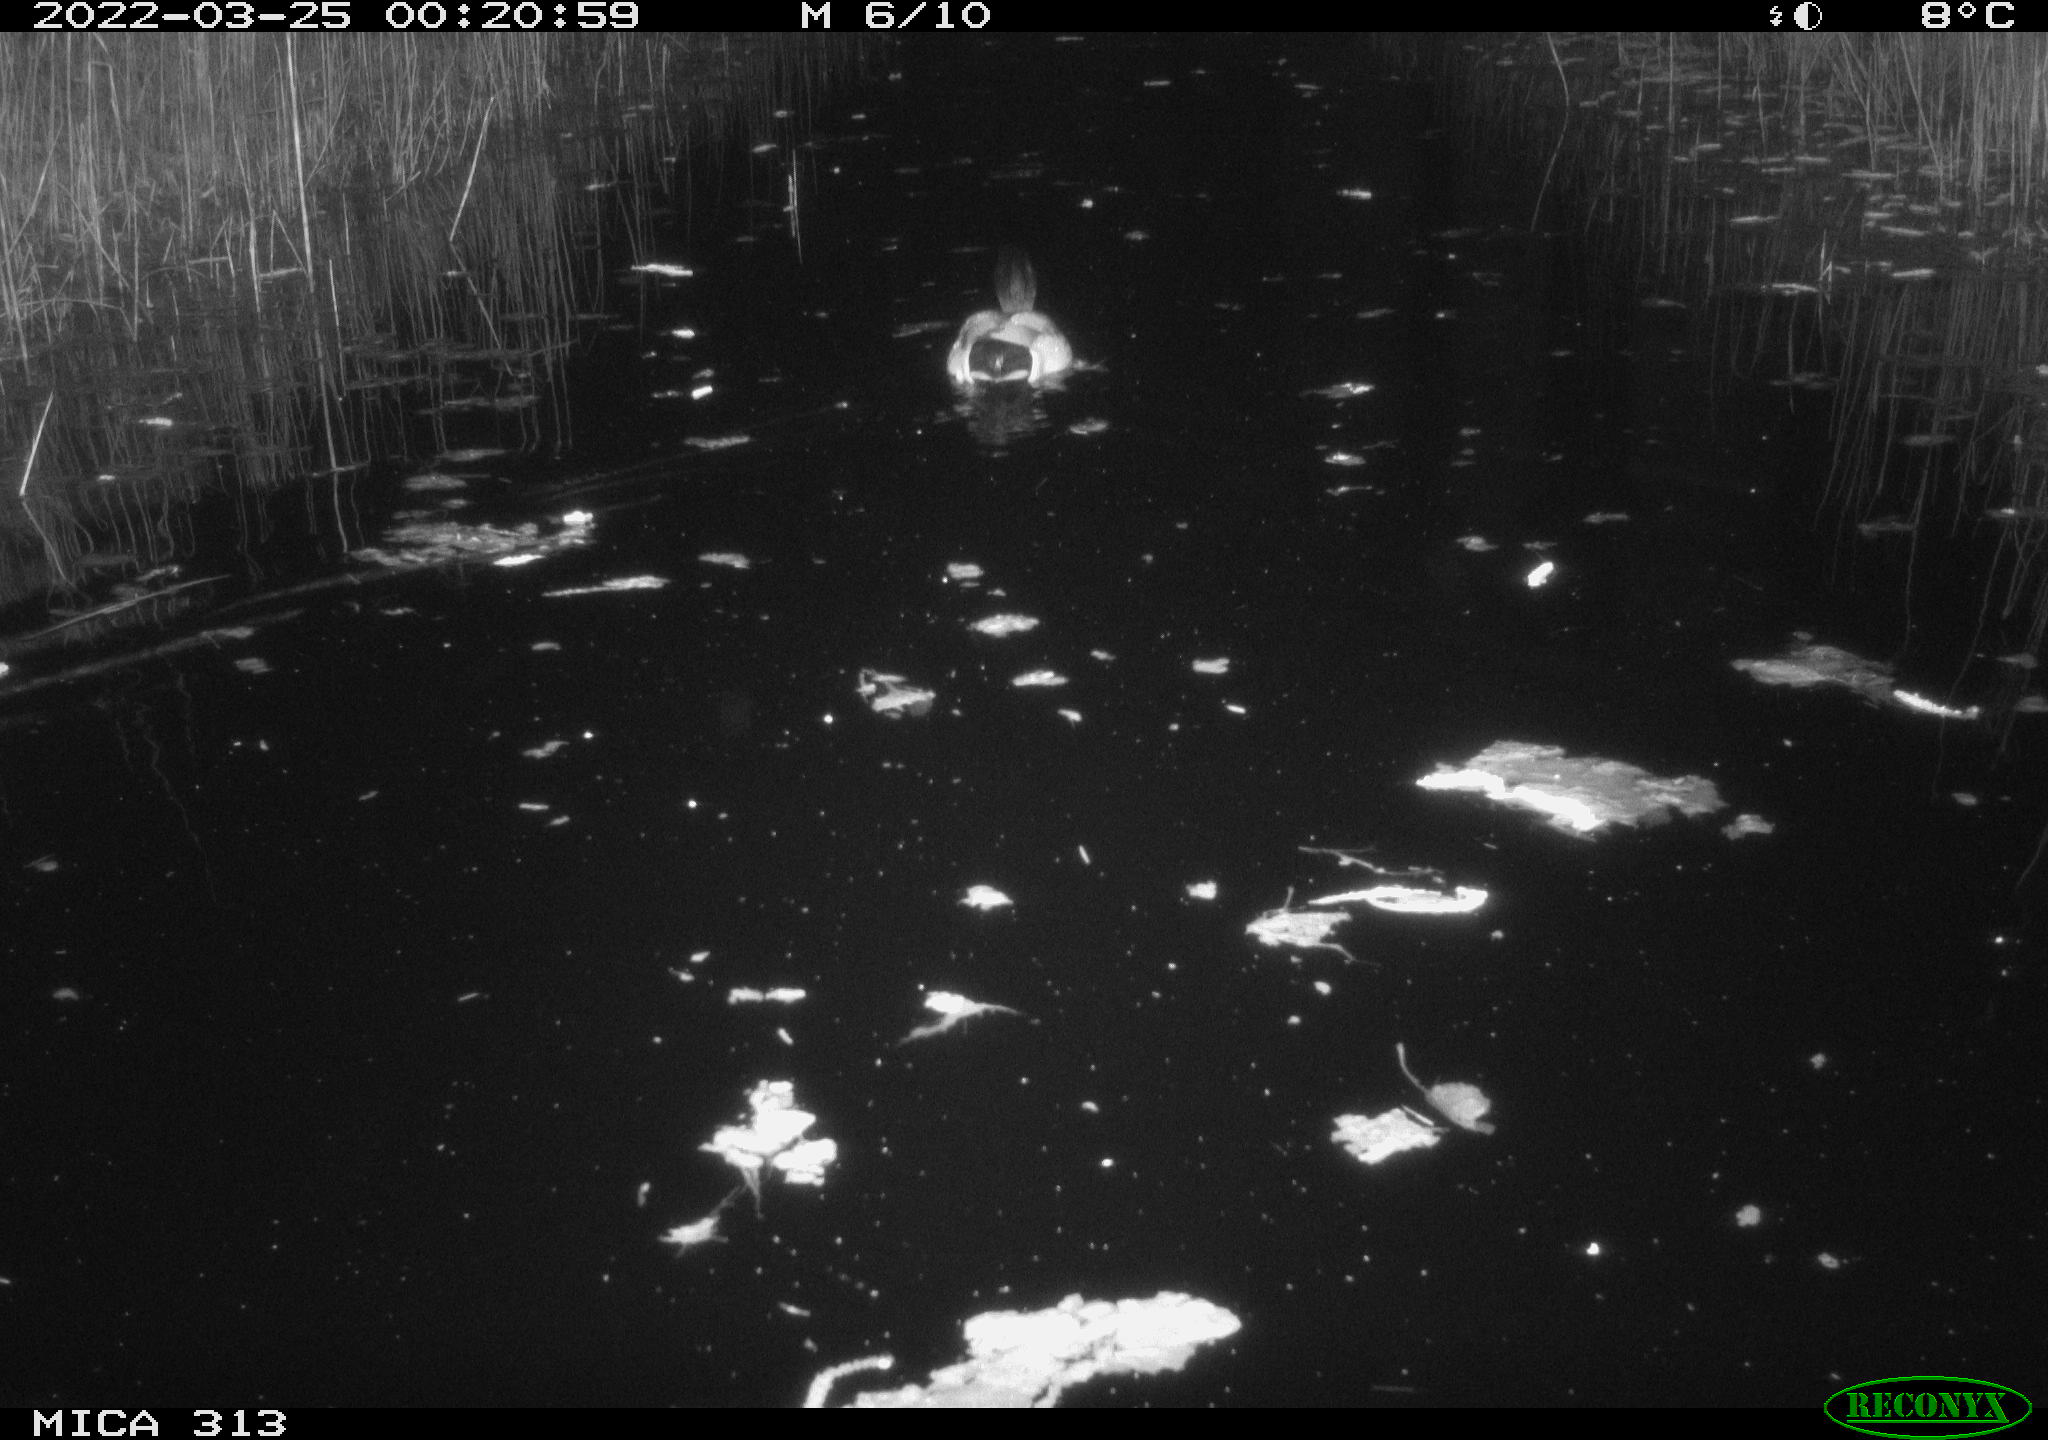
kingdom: Animalia
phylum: Chordata
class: Aves
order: Anseriformes
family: Anatidae
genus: Anas
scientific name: Anas platyrhynchos
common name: Mallard
